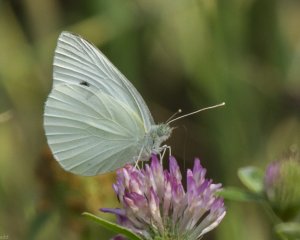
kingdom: Animalia
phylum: Arthropoda
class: Insecta
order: Lepidoptera
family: Pieridae
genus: Pieris
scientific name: Pieris rapae
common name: Cabbage White
